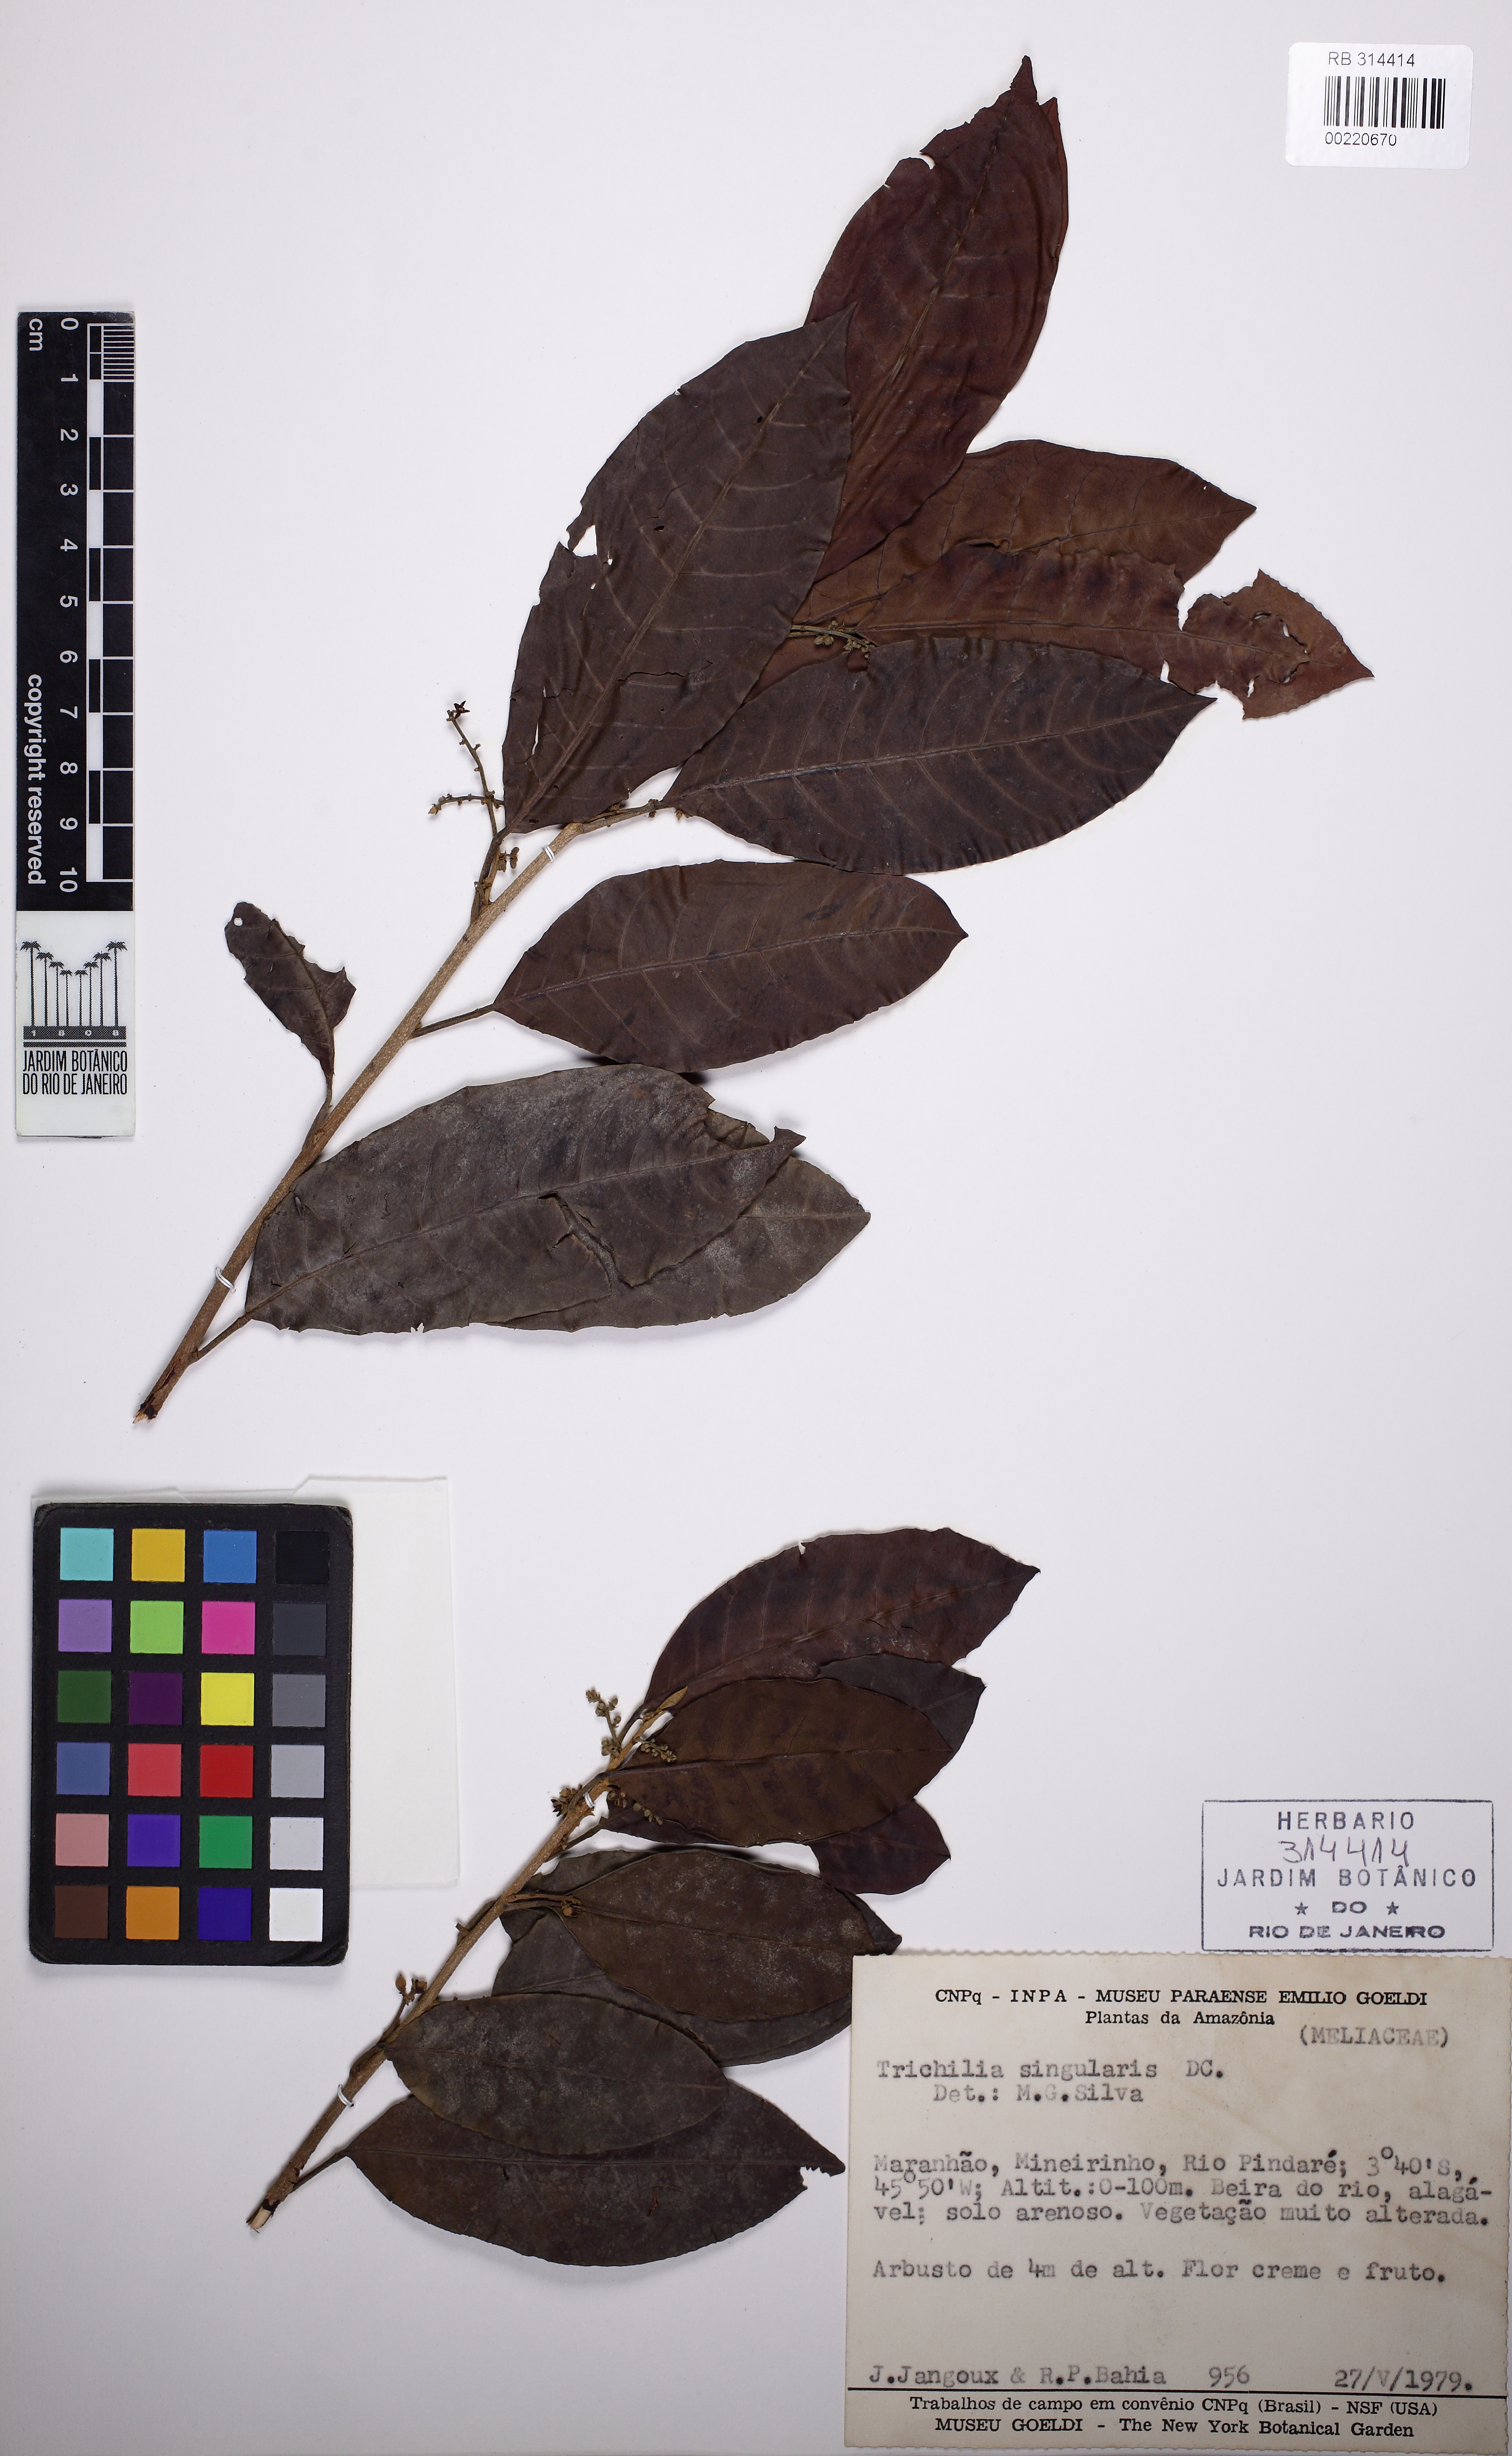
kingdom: Plantae
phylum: Tracheophyta
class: Magnoliopsida
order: Sapindales
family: Meliaceae
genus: Trichilia
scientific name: Trichilia singularis
